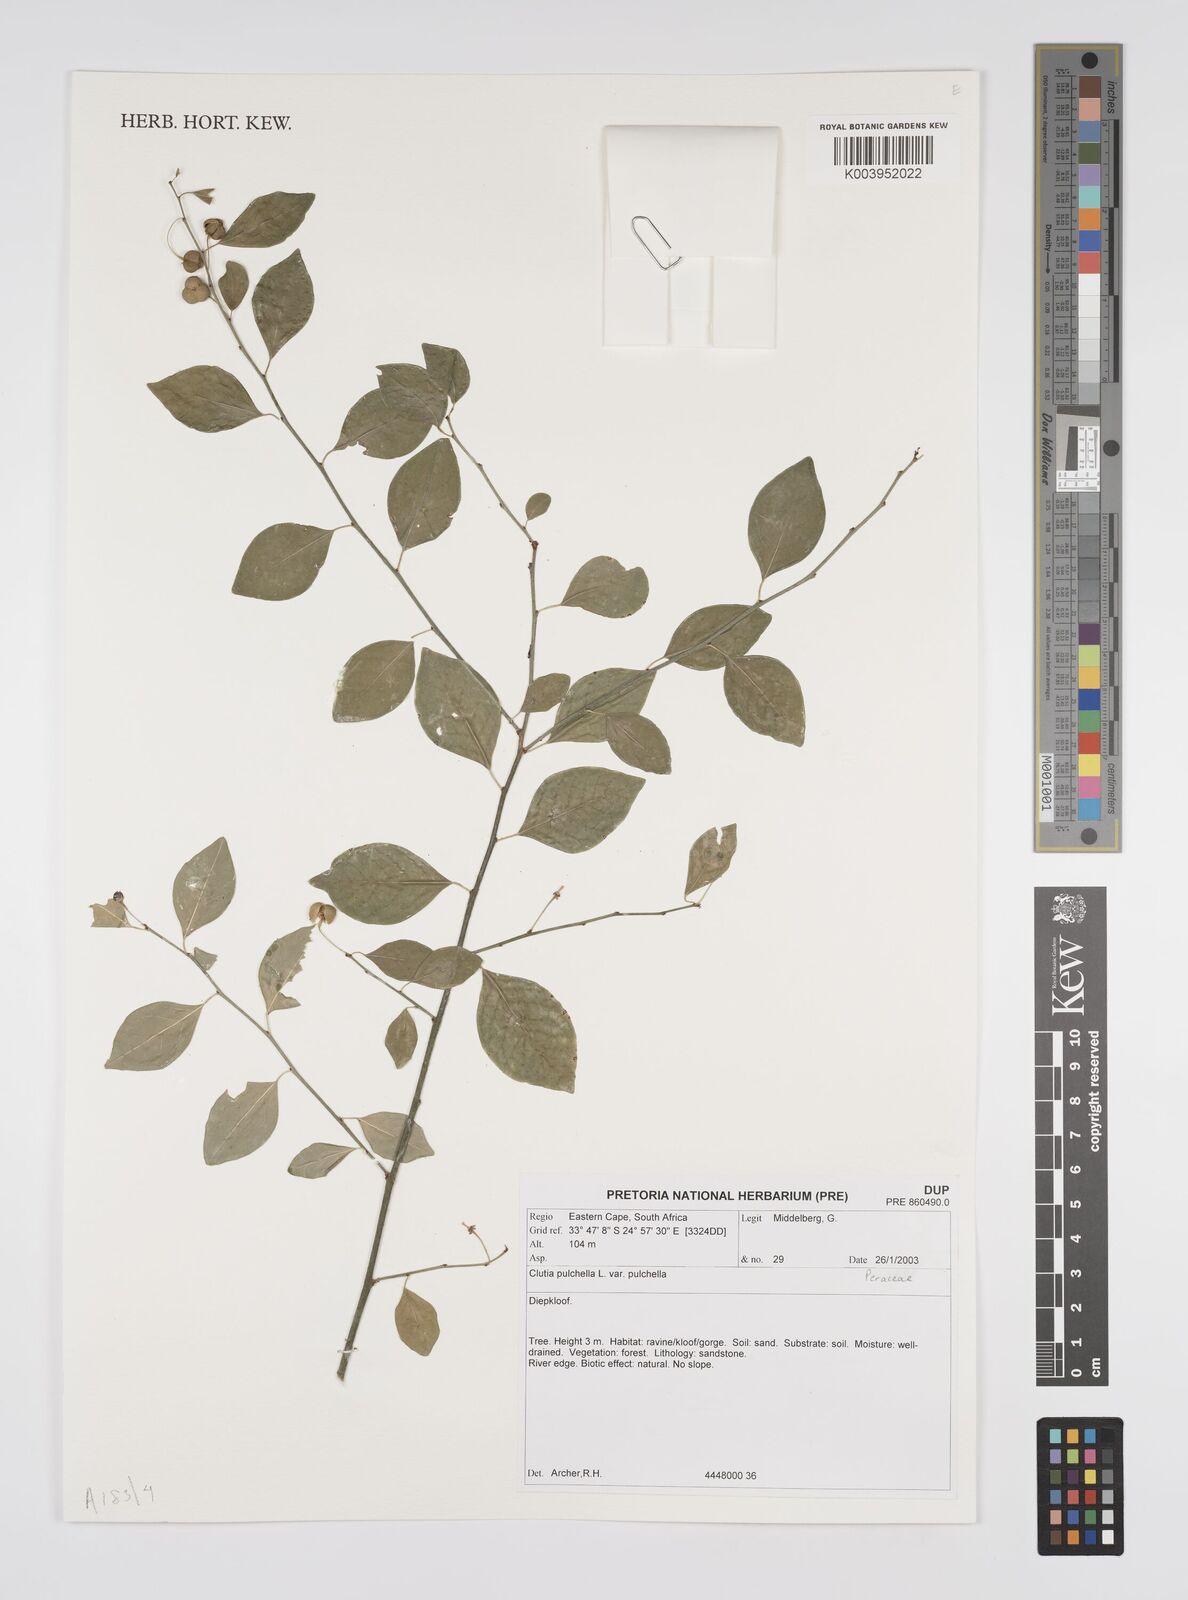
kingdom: Plantae
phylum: Tracheophyta
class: Magnoliopsida
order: Malpighiales
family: Peraceae
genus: Clutia
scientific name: Clutia pulchella
